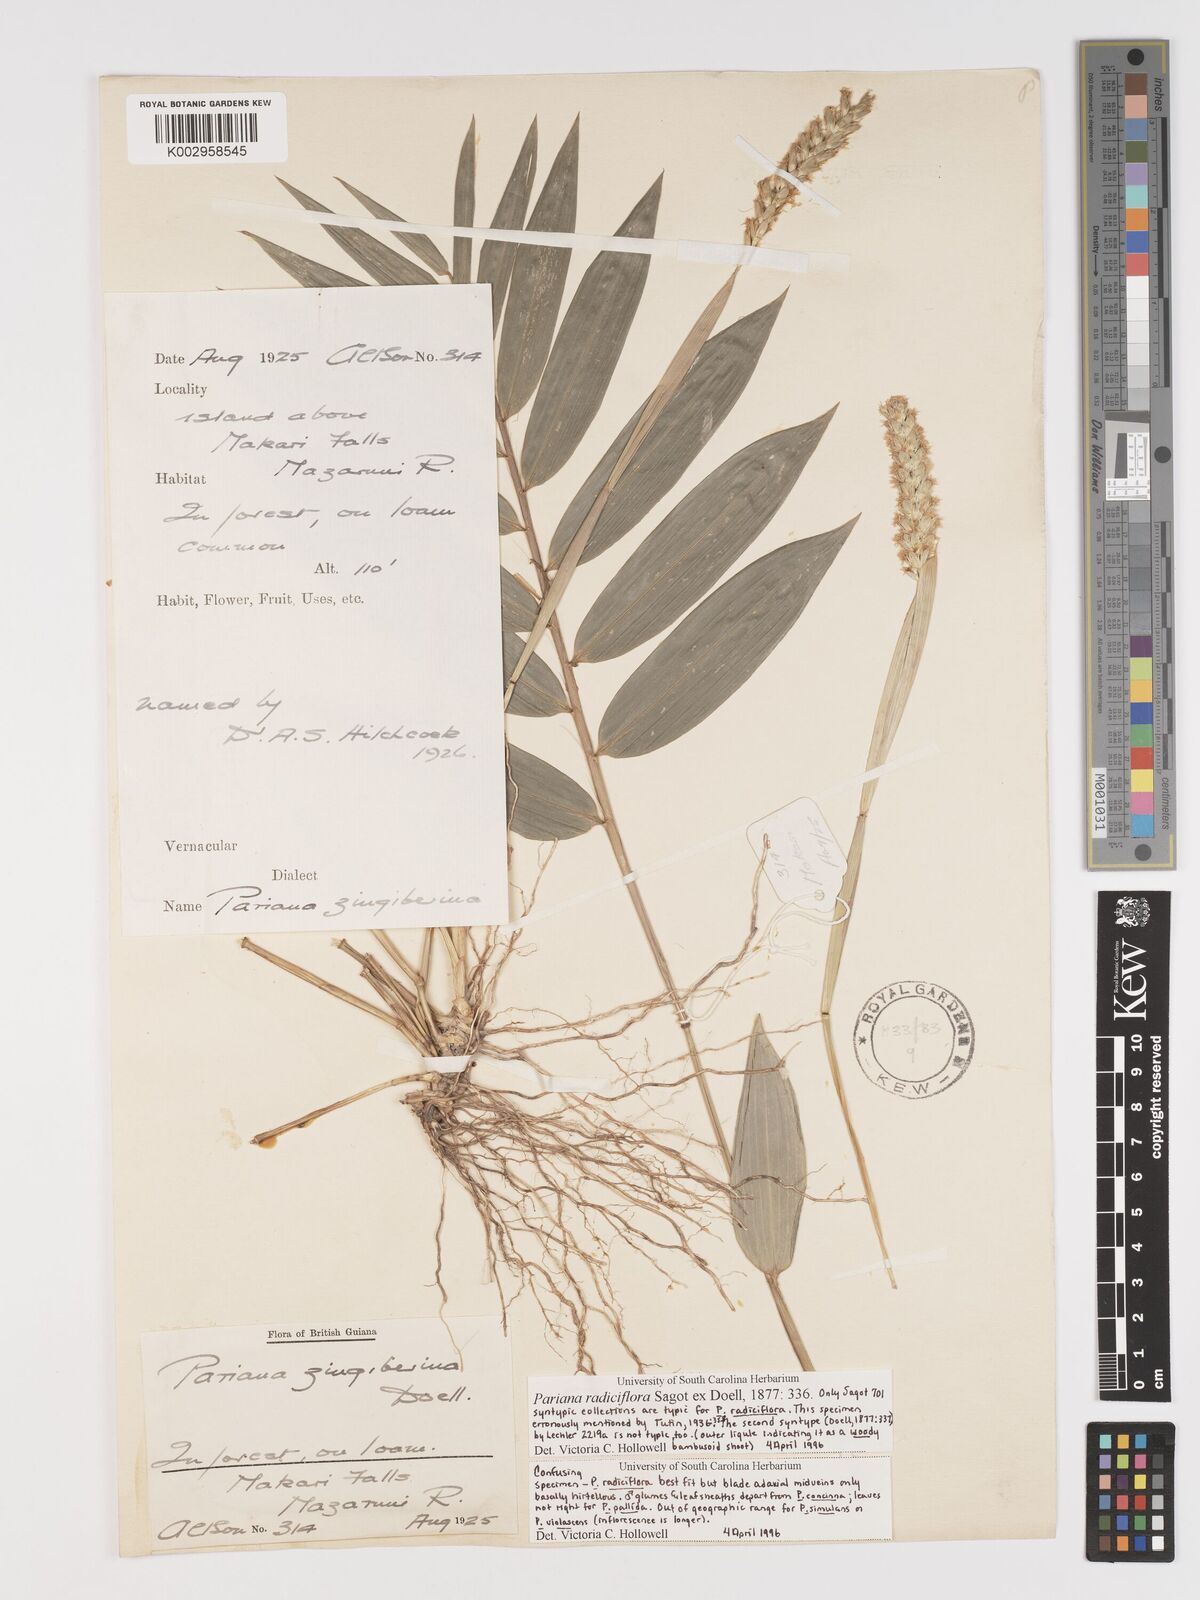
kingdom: Plantae
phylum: Tracheophyta
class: Liliopsida
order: Poales
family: Poaceae
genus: Pariana
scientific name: Pariana radiciflora
